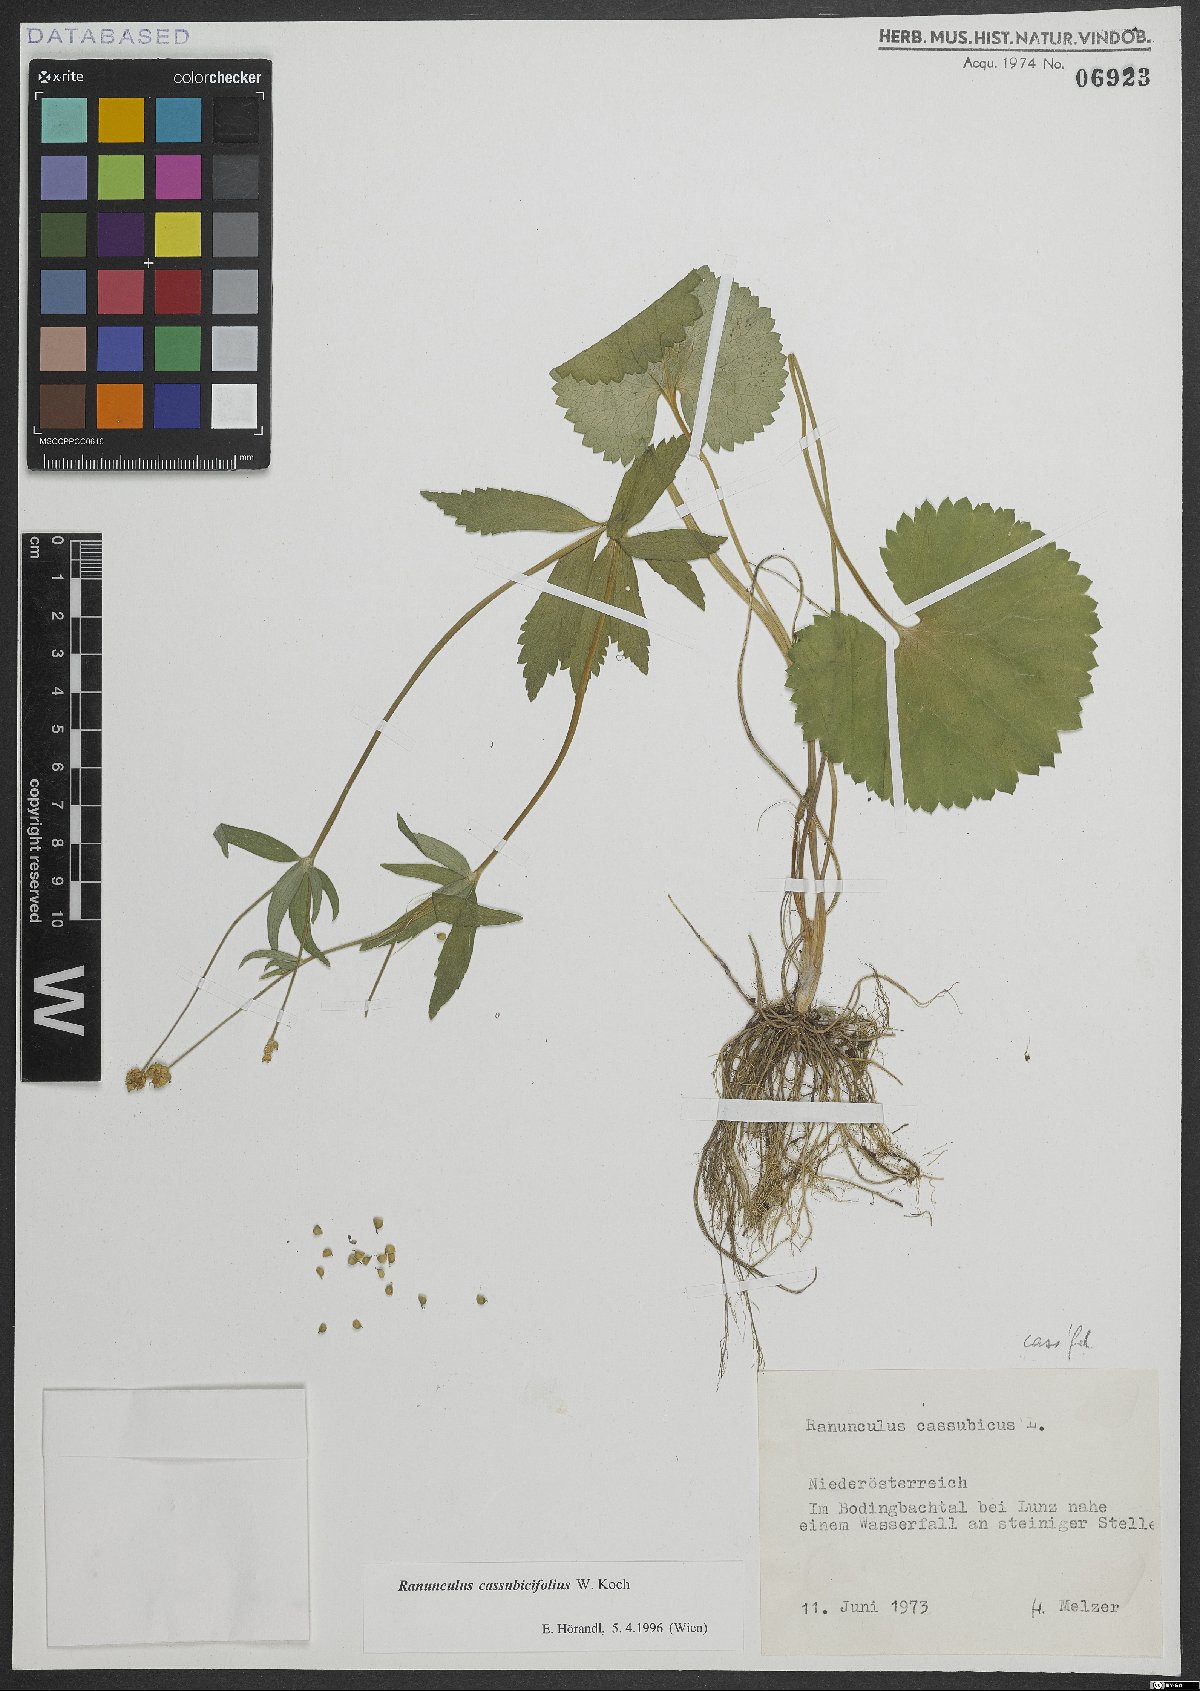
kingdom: Plantae
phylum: Tracheophyta
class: Magnoliopsida
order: Ranunculales
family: Ranunculaceae
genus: Ranunculus
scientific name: Ranunculus cassubicifolius
